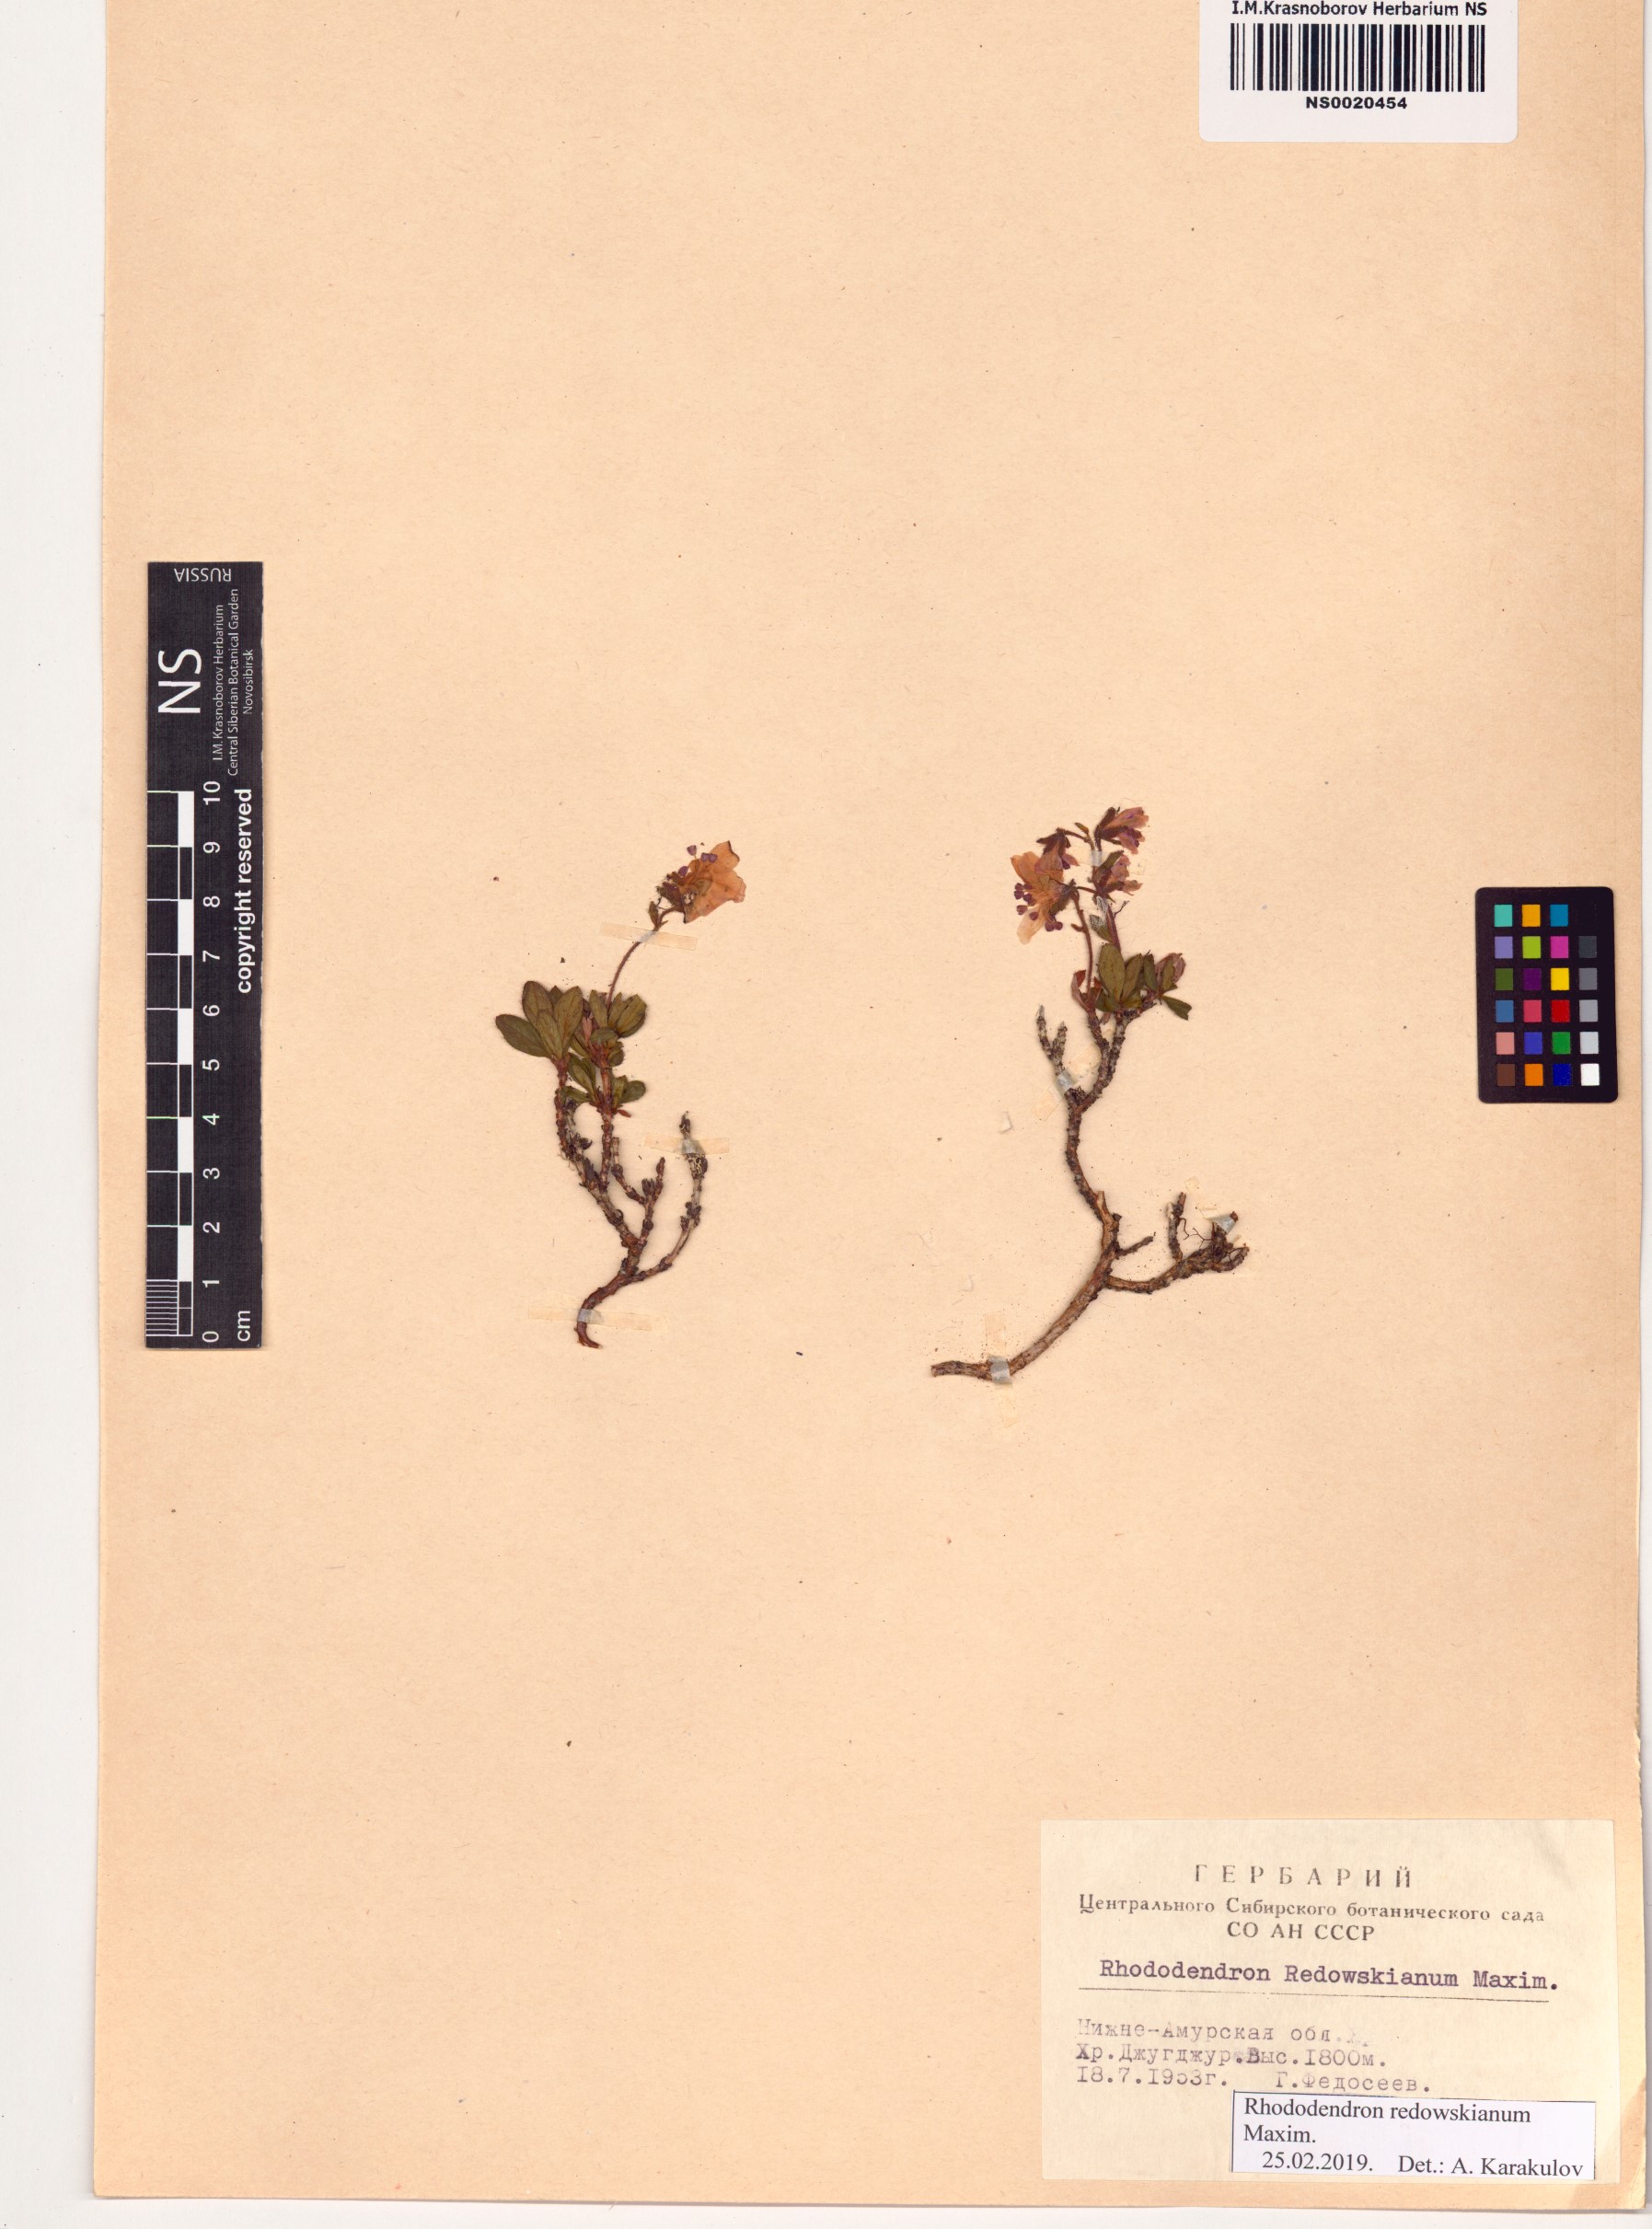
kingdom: Plantae
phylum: Tracheophyta
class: Magnoliopsida
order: Ericales
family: Ericaceae
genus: Rhododendron
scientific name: Rhododendron redowskianum
